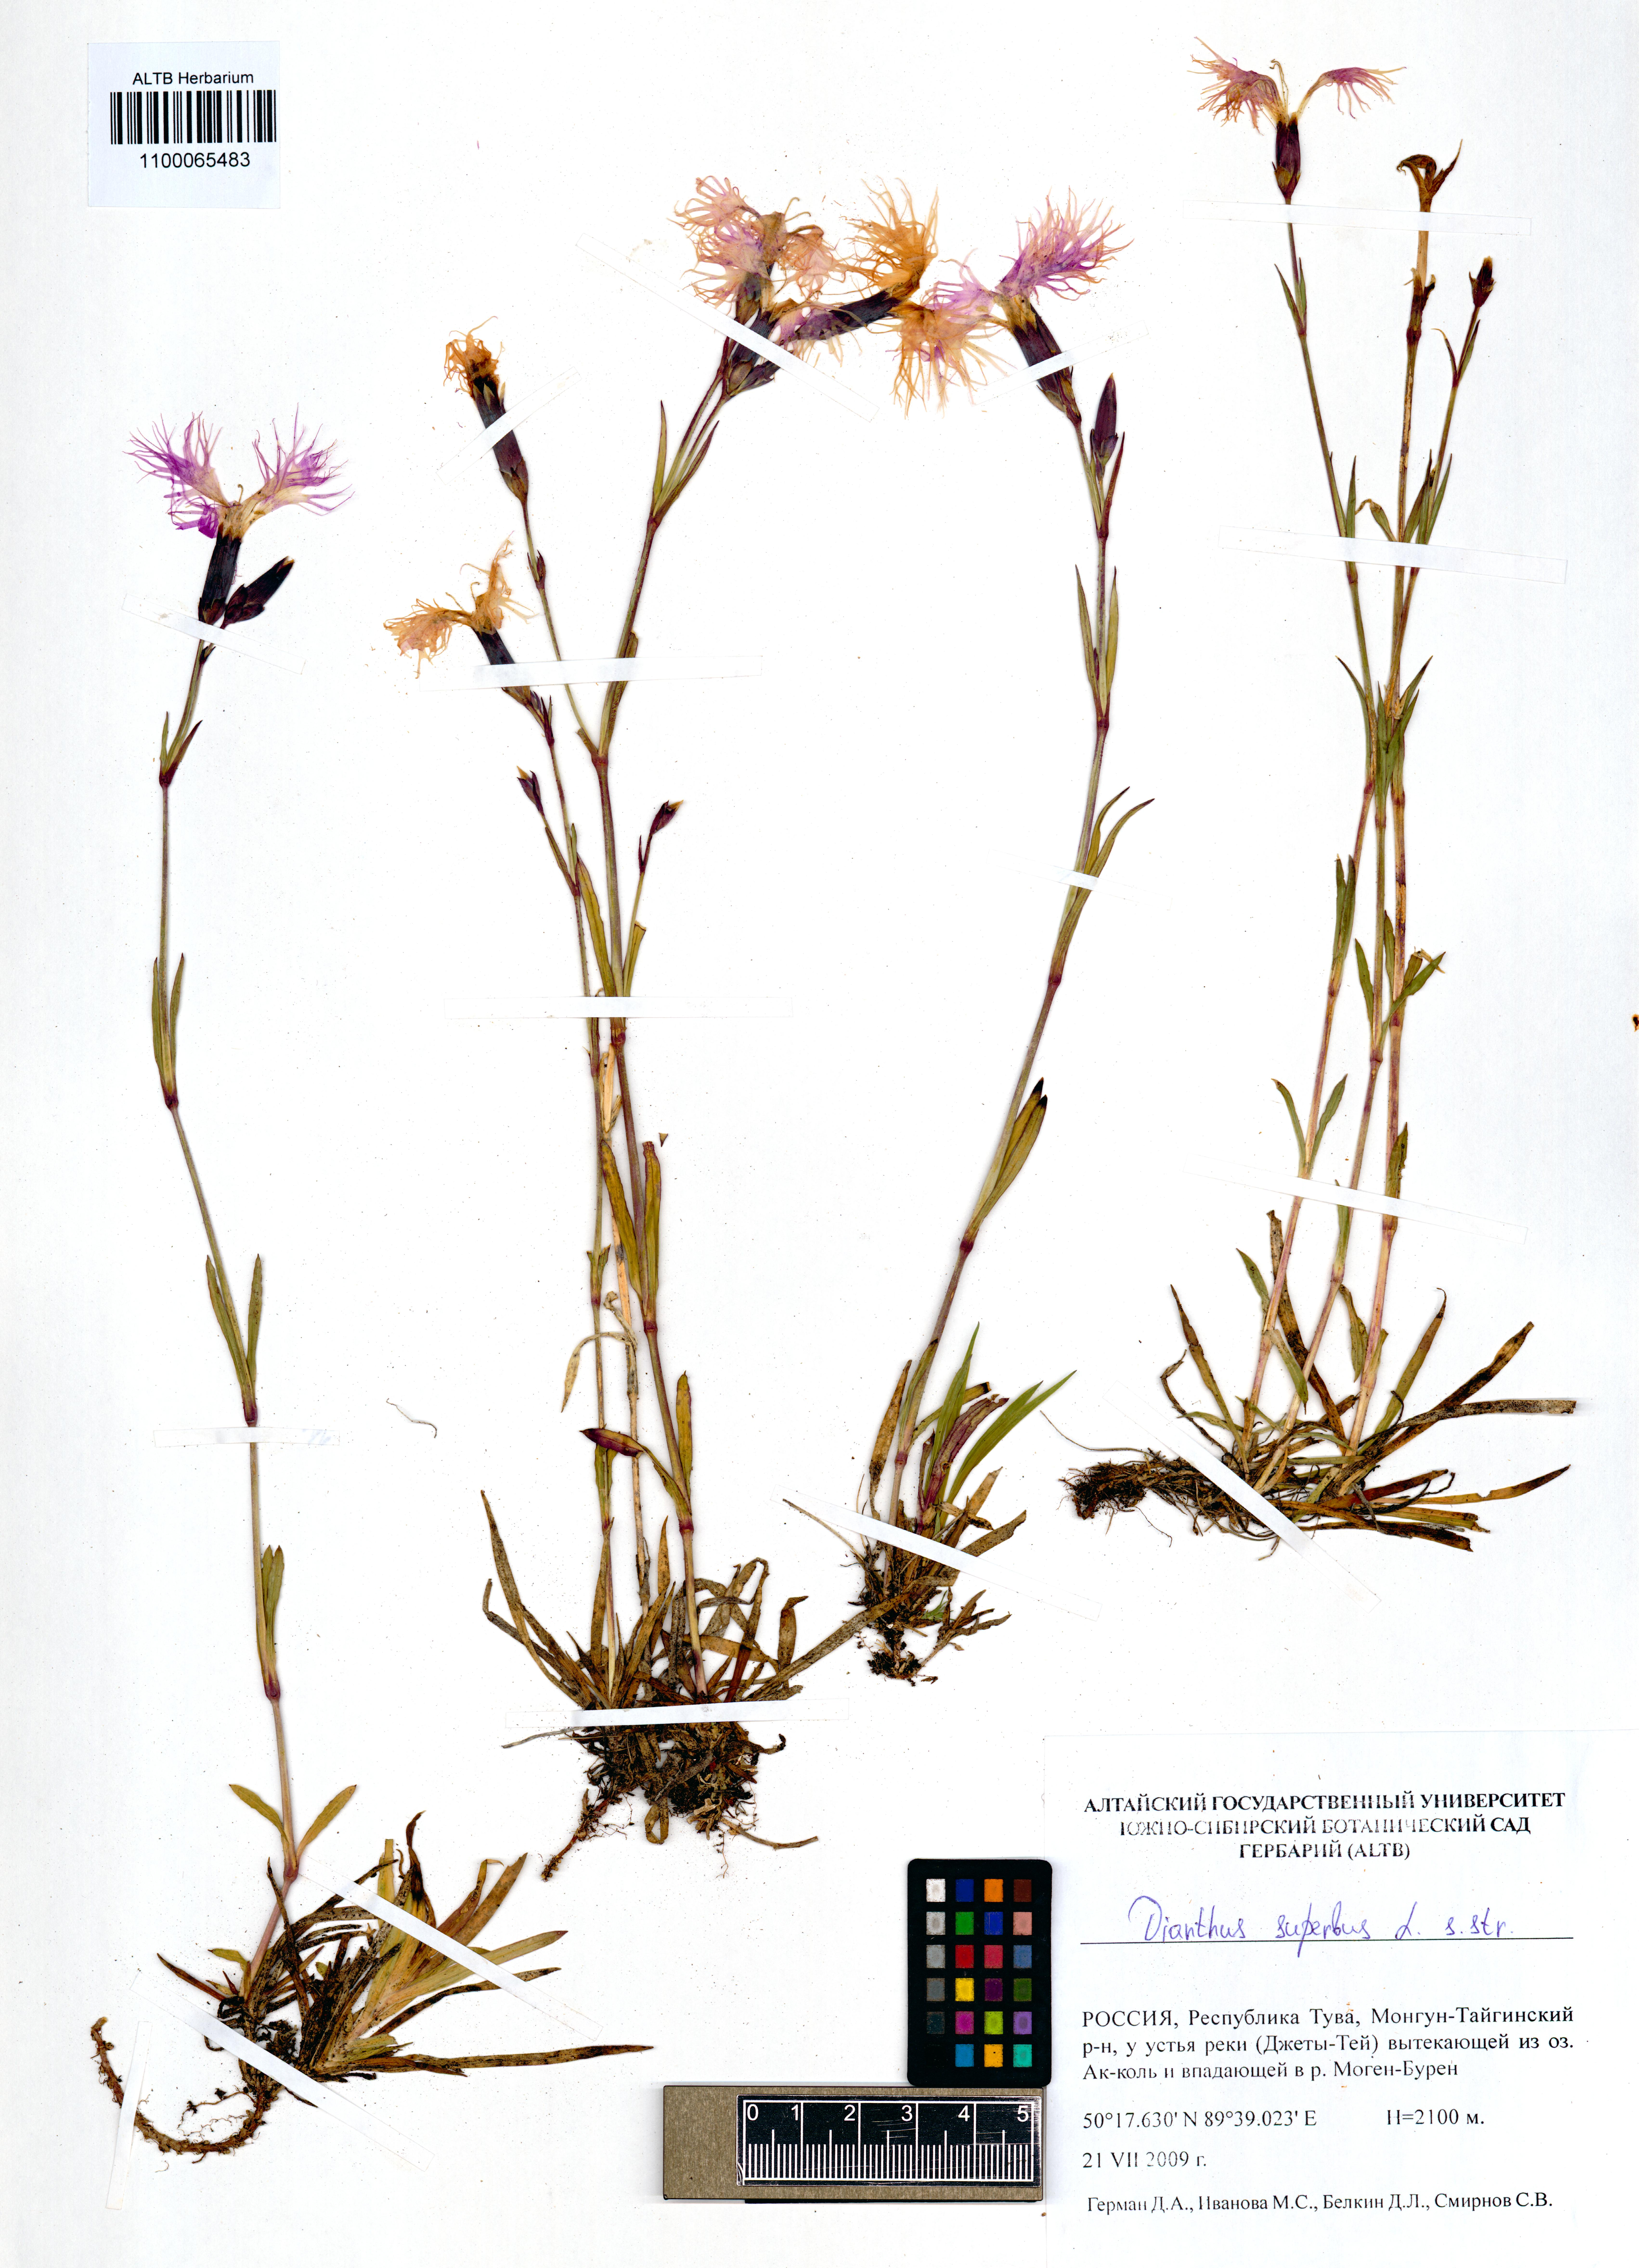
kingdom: Plantae
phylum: Tracheophyta
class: Magnoliopsida
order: Caryophyllales
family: Caryophyllaceae
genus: Dianthus
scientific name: Dianthus superbus
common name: Fringed pink
